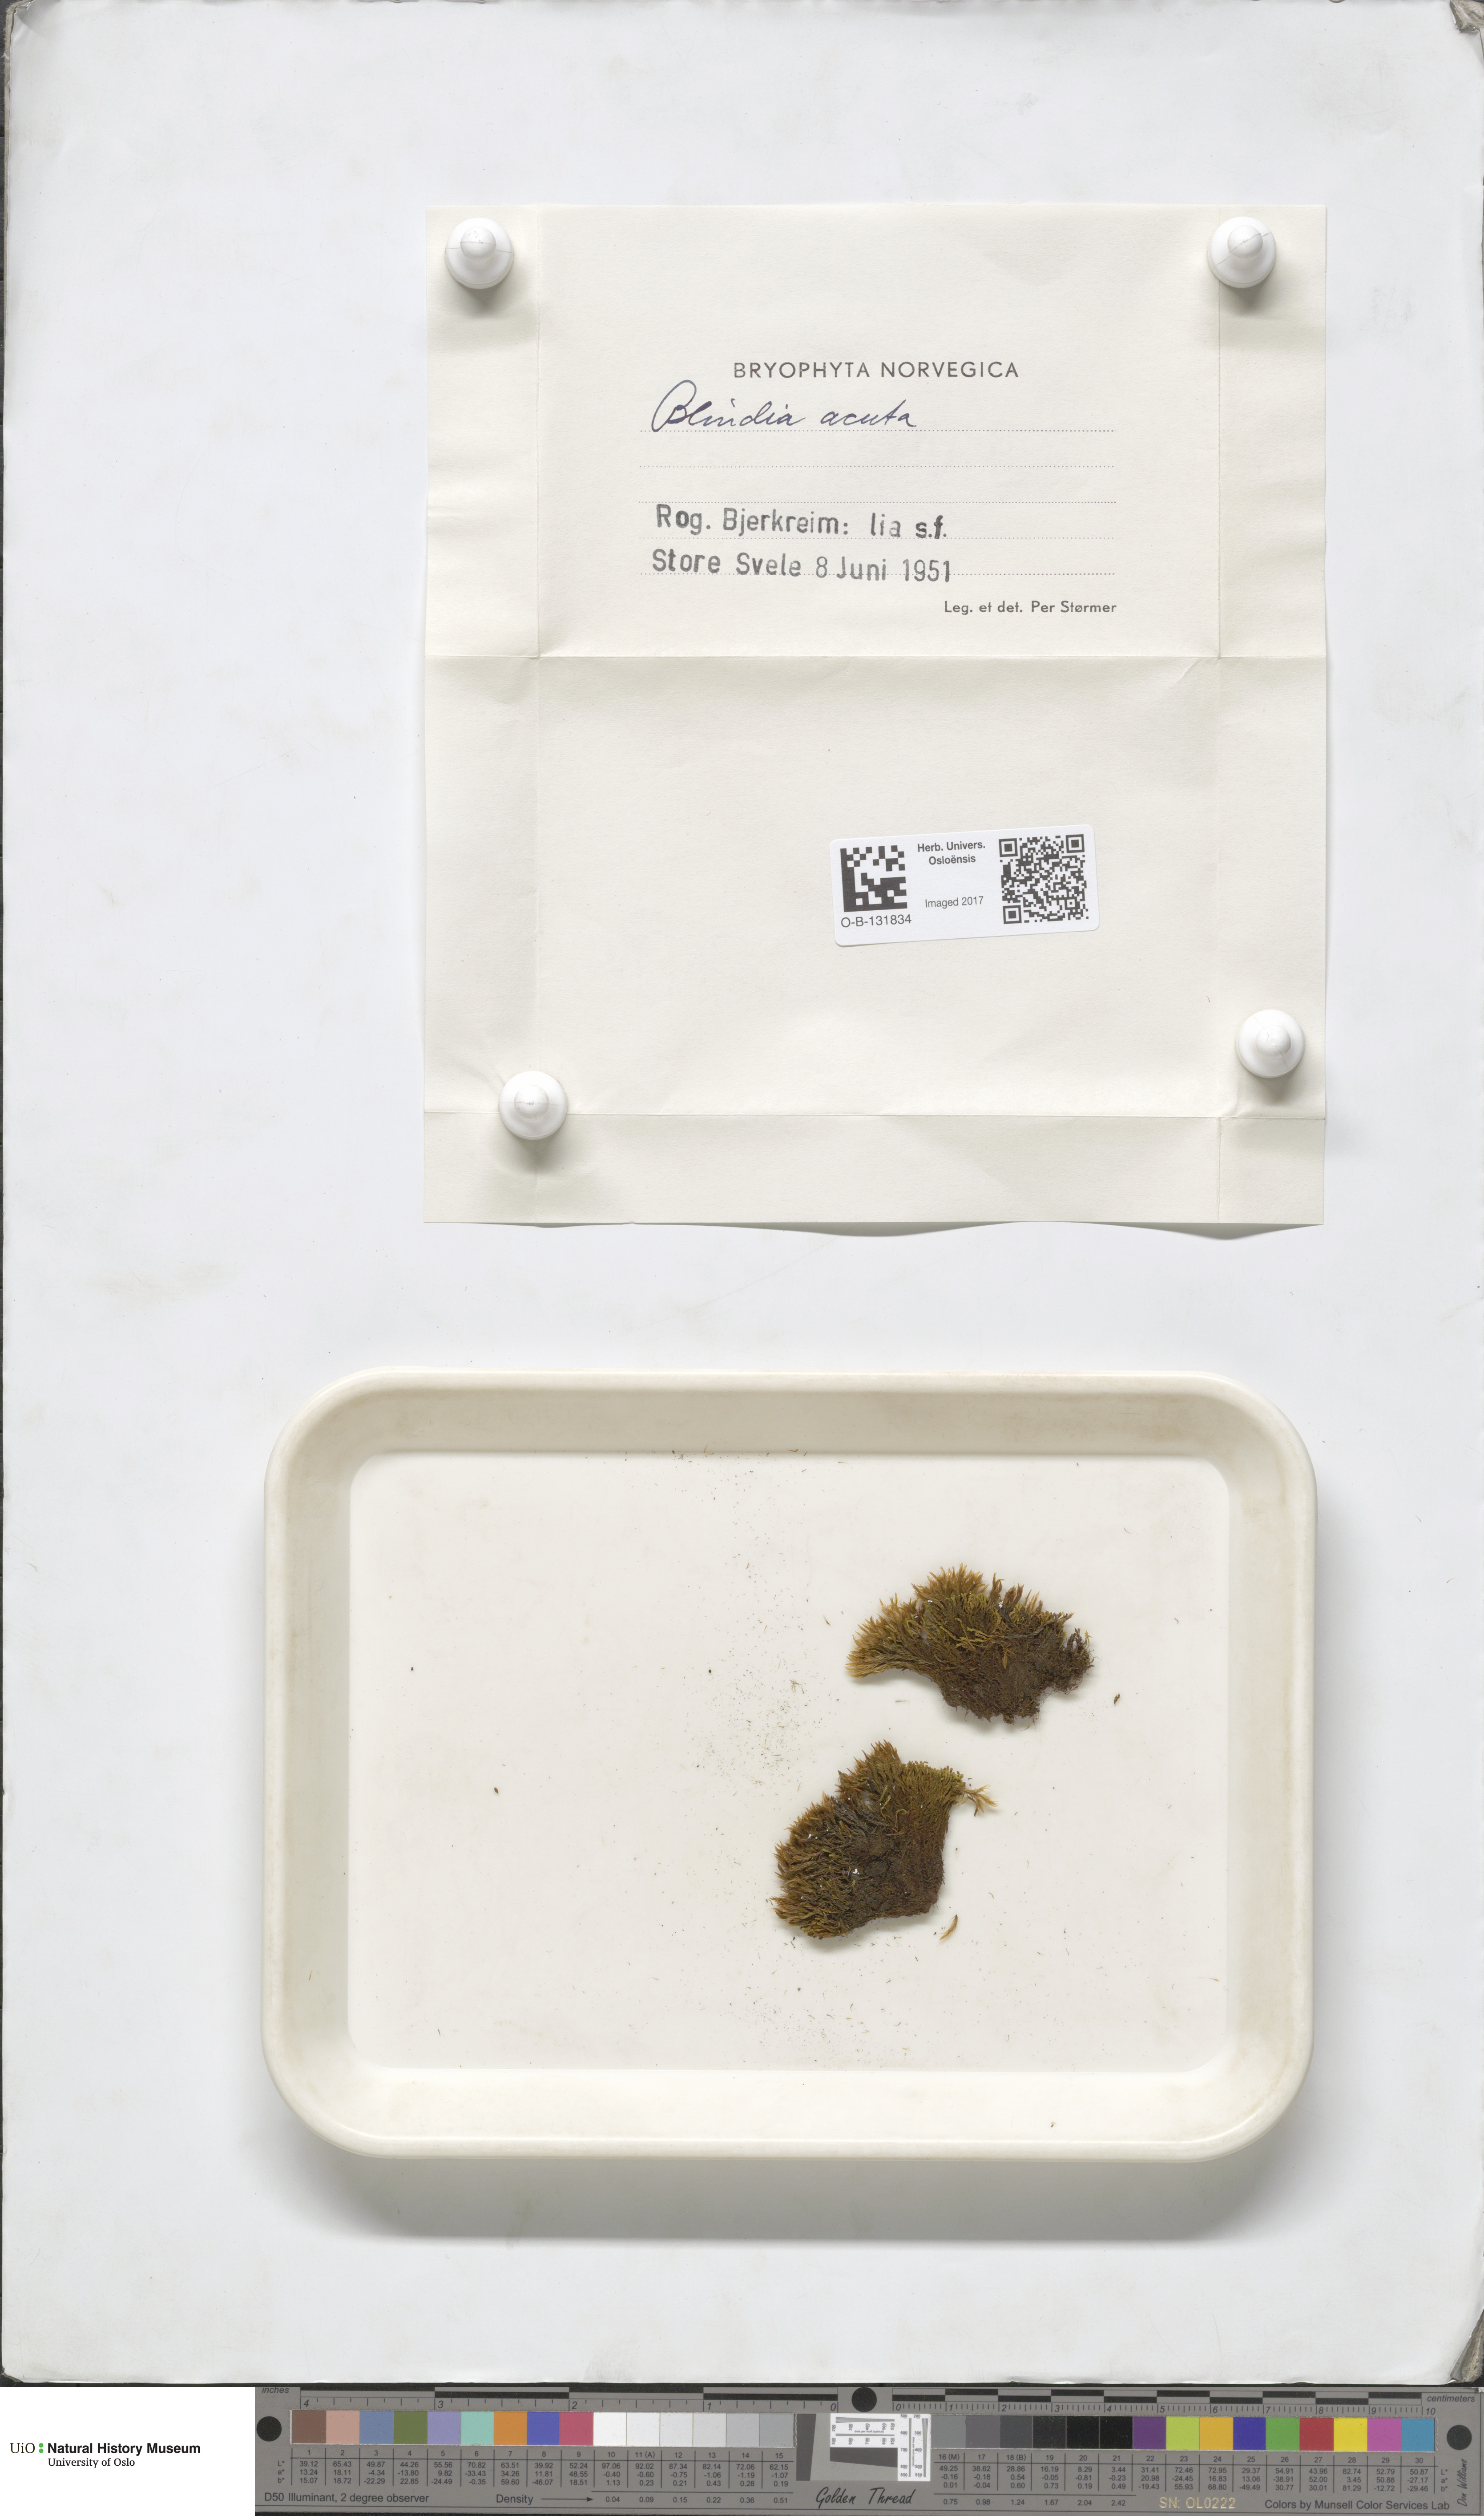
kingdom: Plantae
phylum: Bryophyta
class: Bryopsida
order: Grimmiales
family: Seligeriaceae
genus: Blindia
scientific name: Blindia acuta
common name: Sharp-leaved blind's moss
